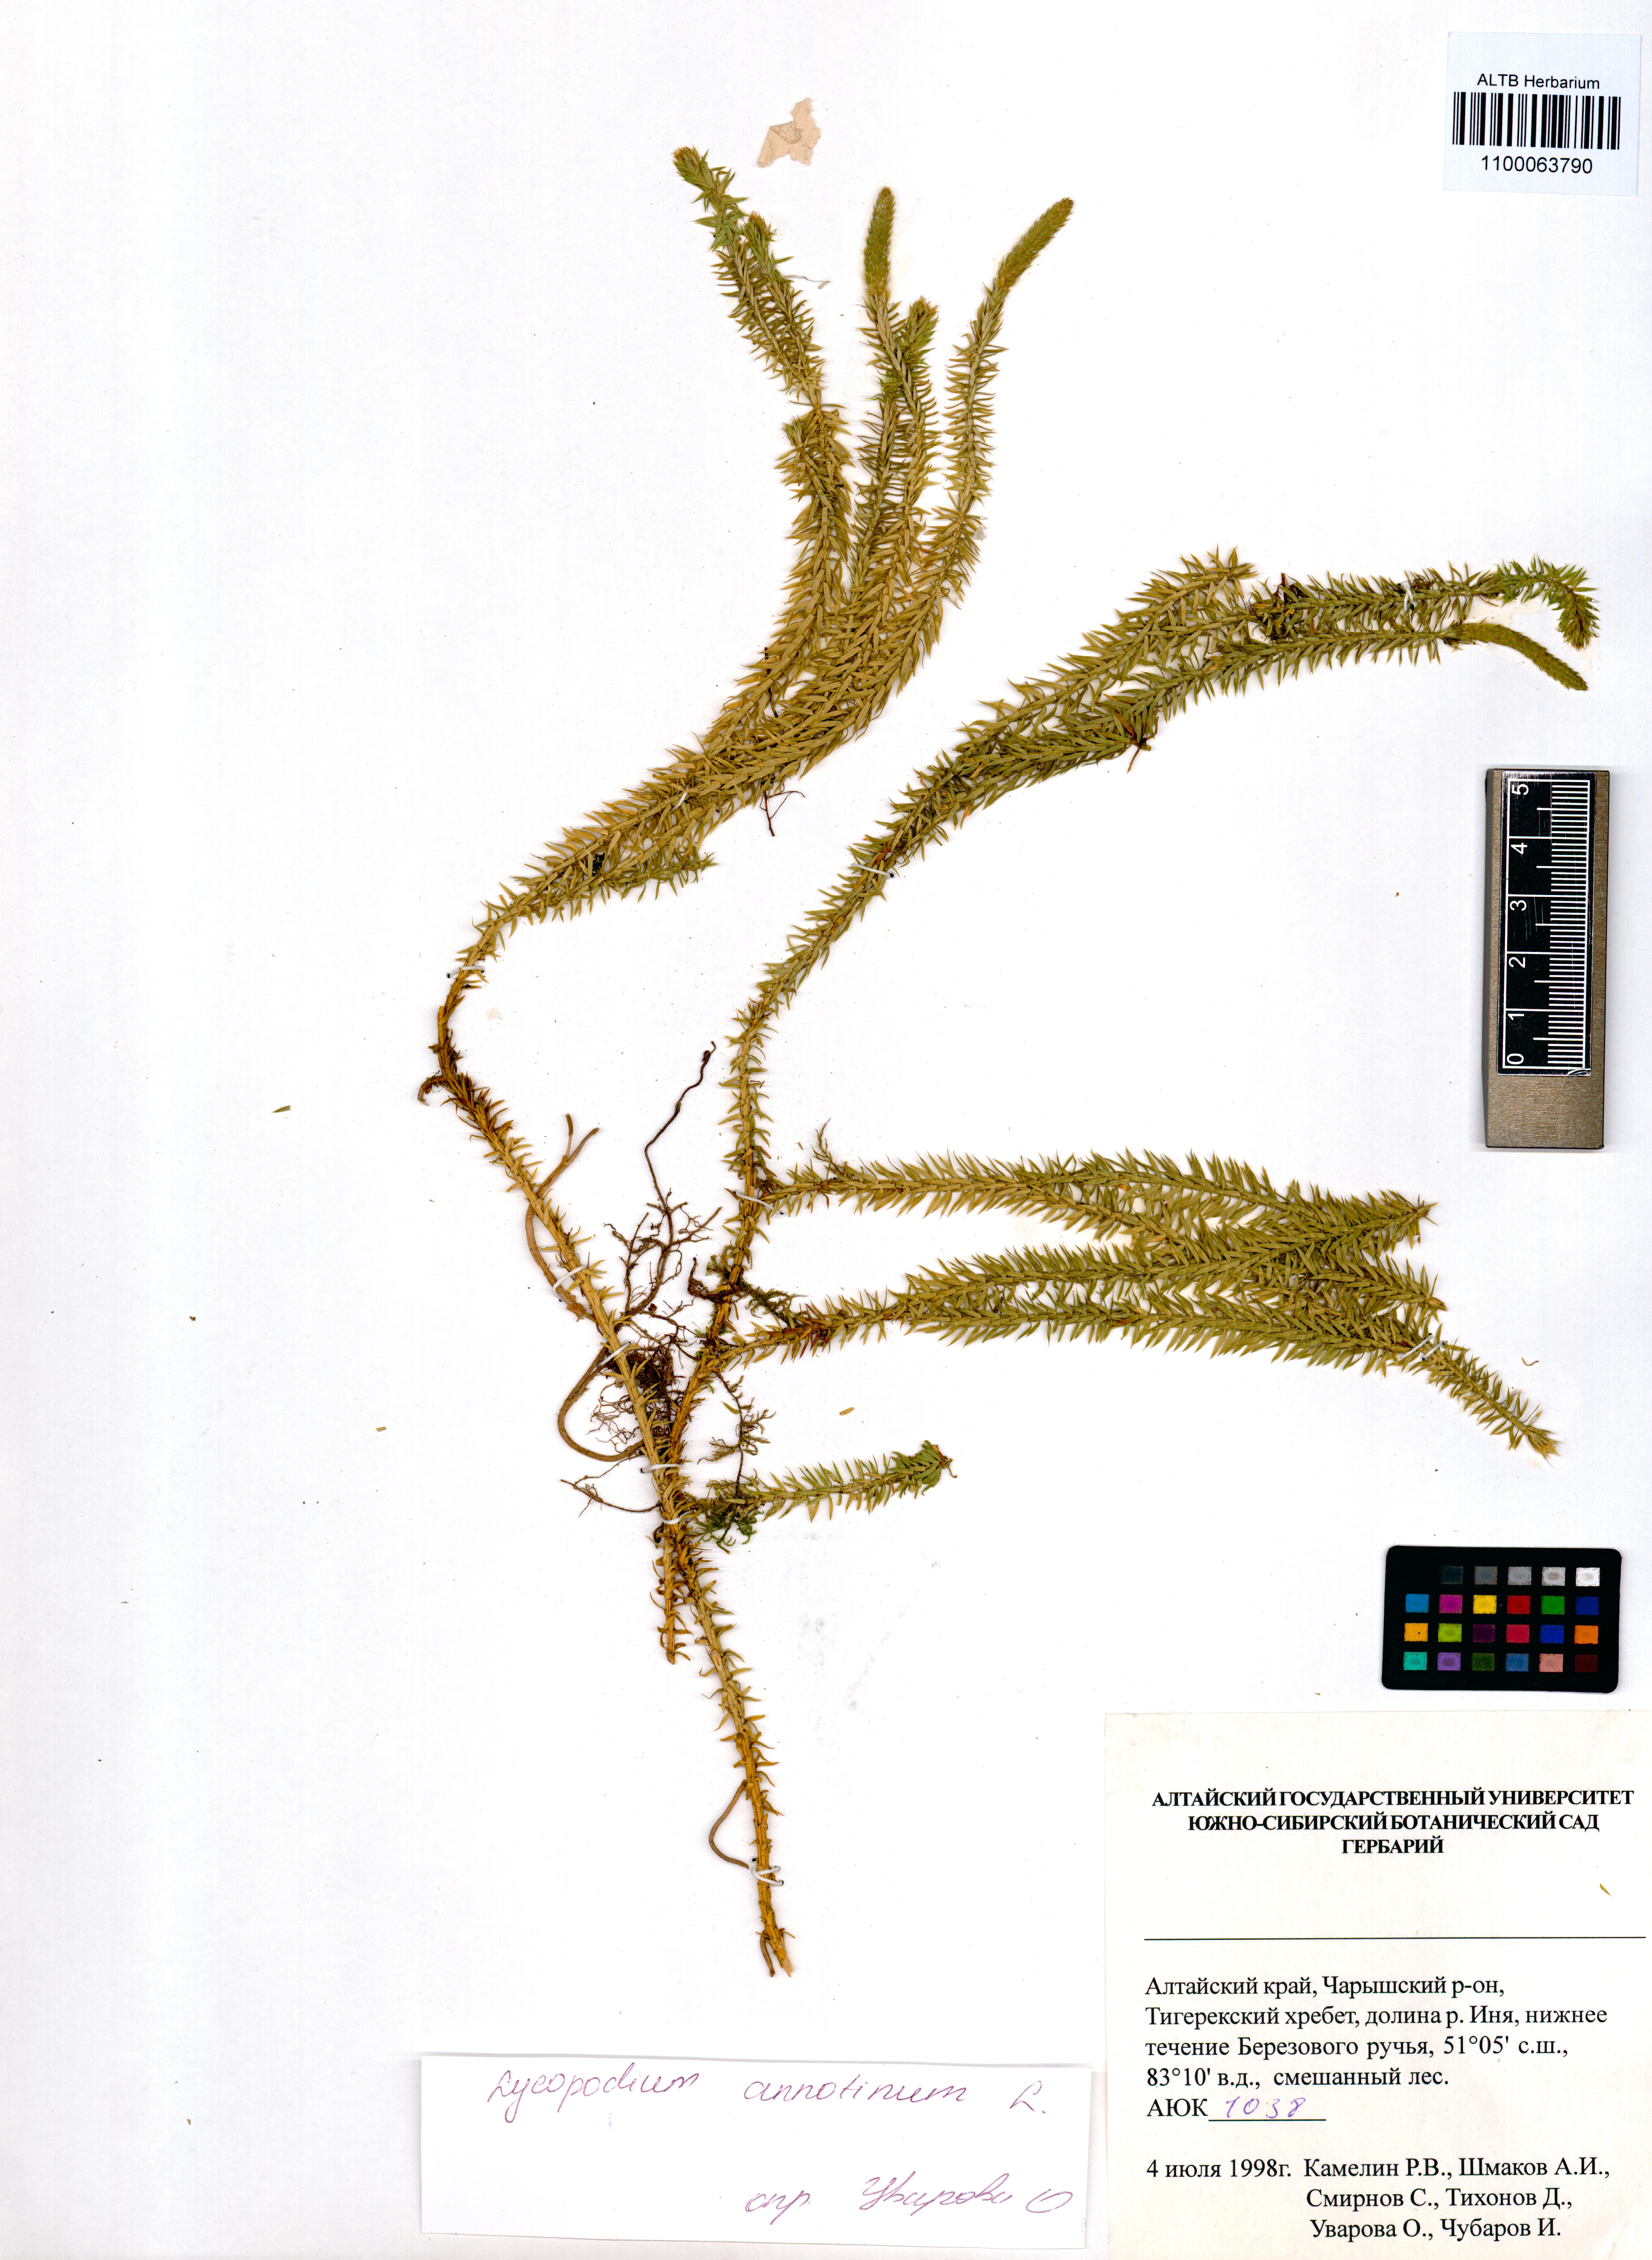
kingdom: Plantae
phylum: Tracheophyta
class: Lycopodiopsida
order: Lycopodiales
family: Lycopodiaceae
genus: Spinulum
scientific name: Spinulum annotinum
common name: Interrupted club-moss
